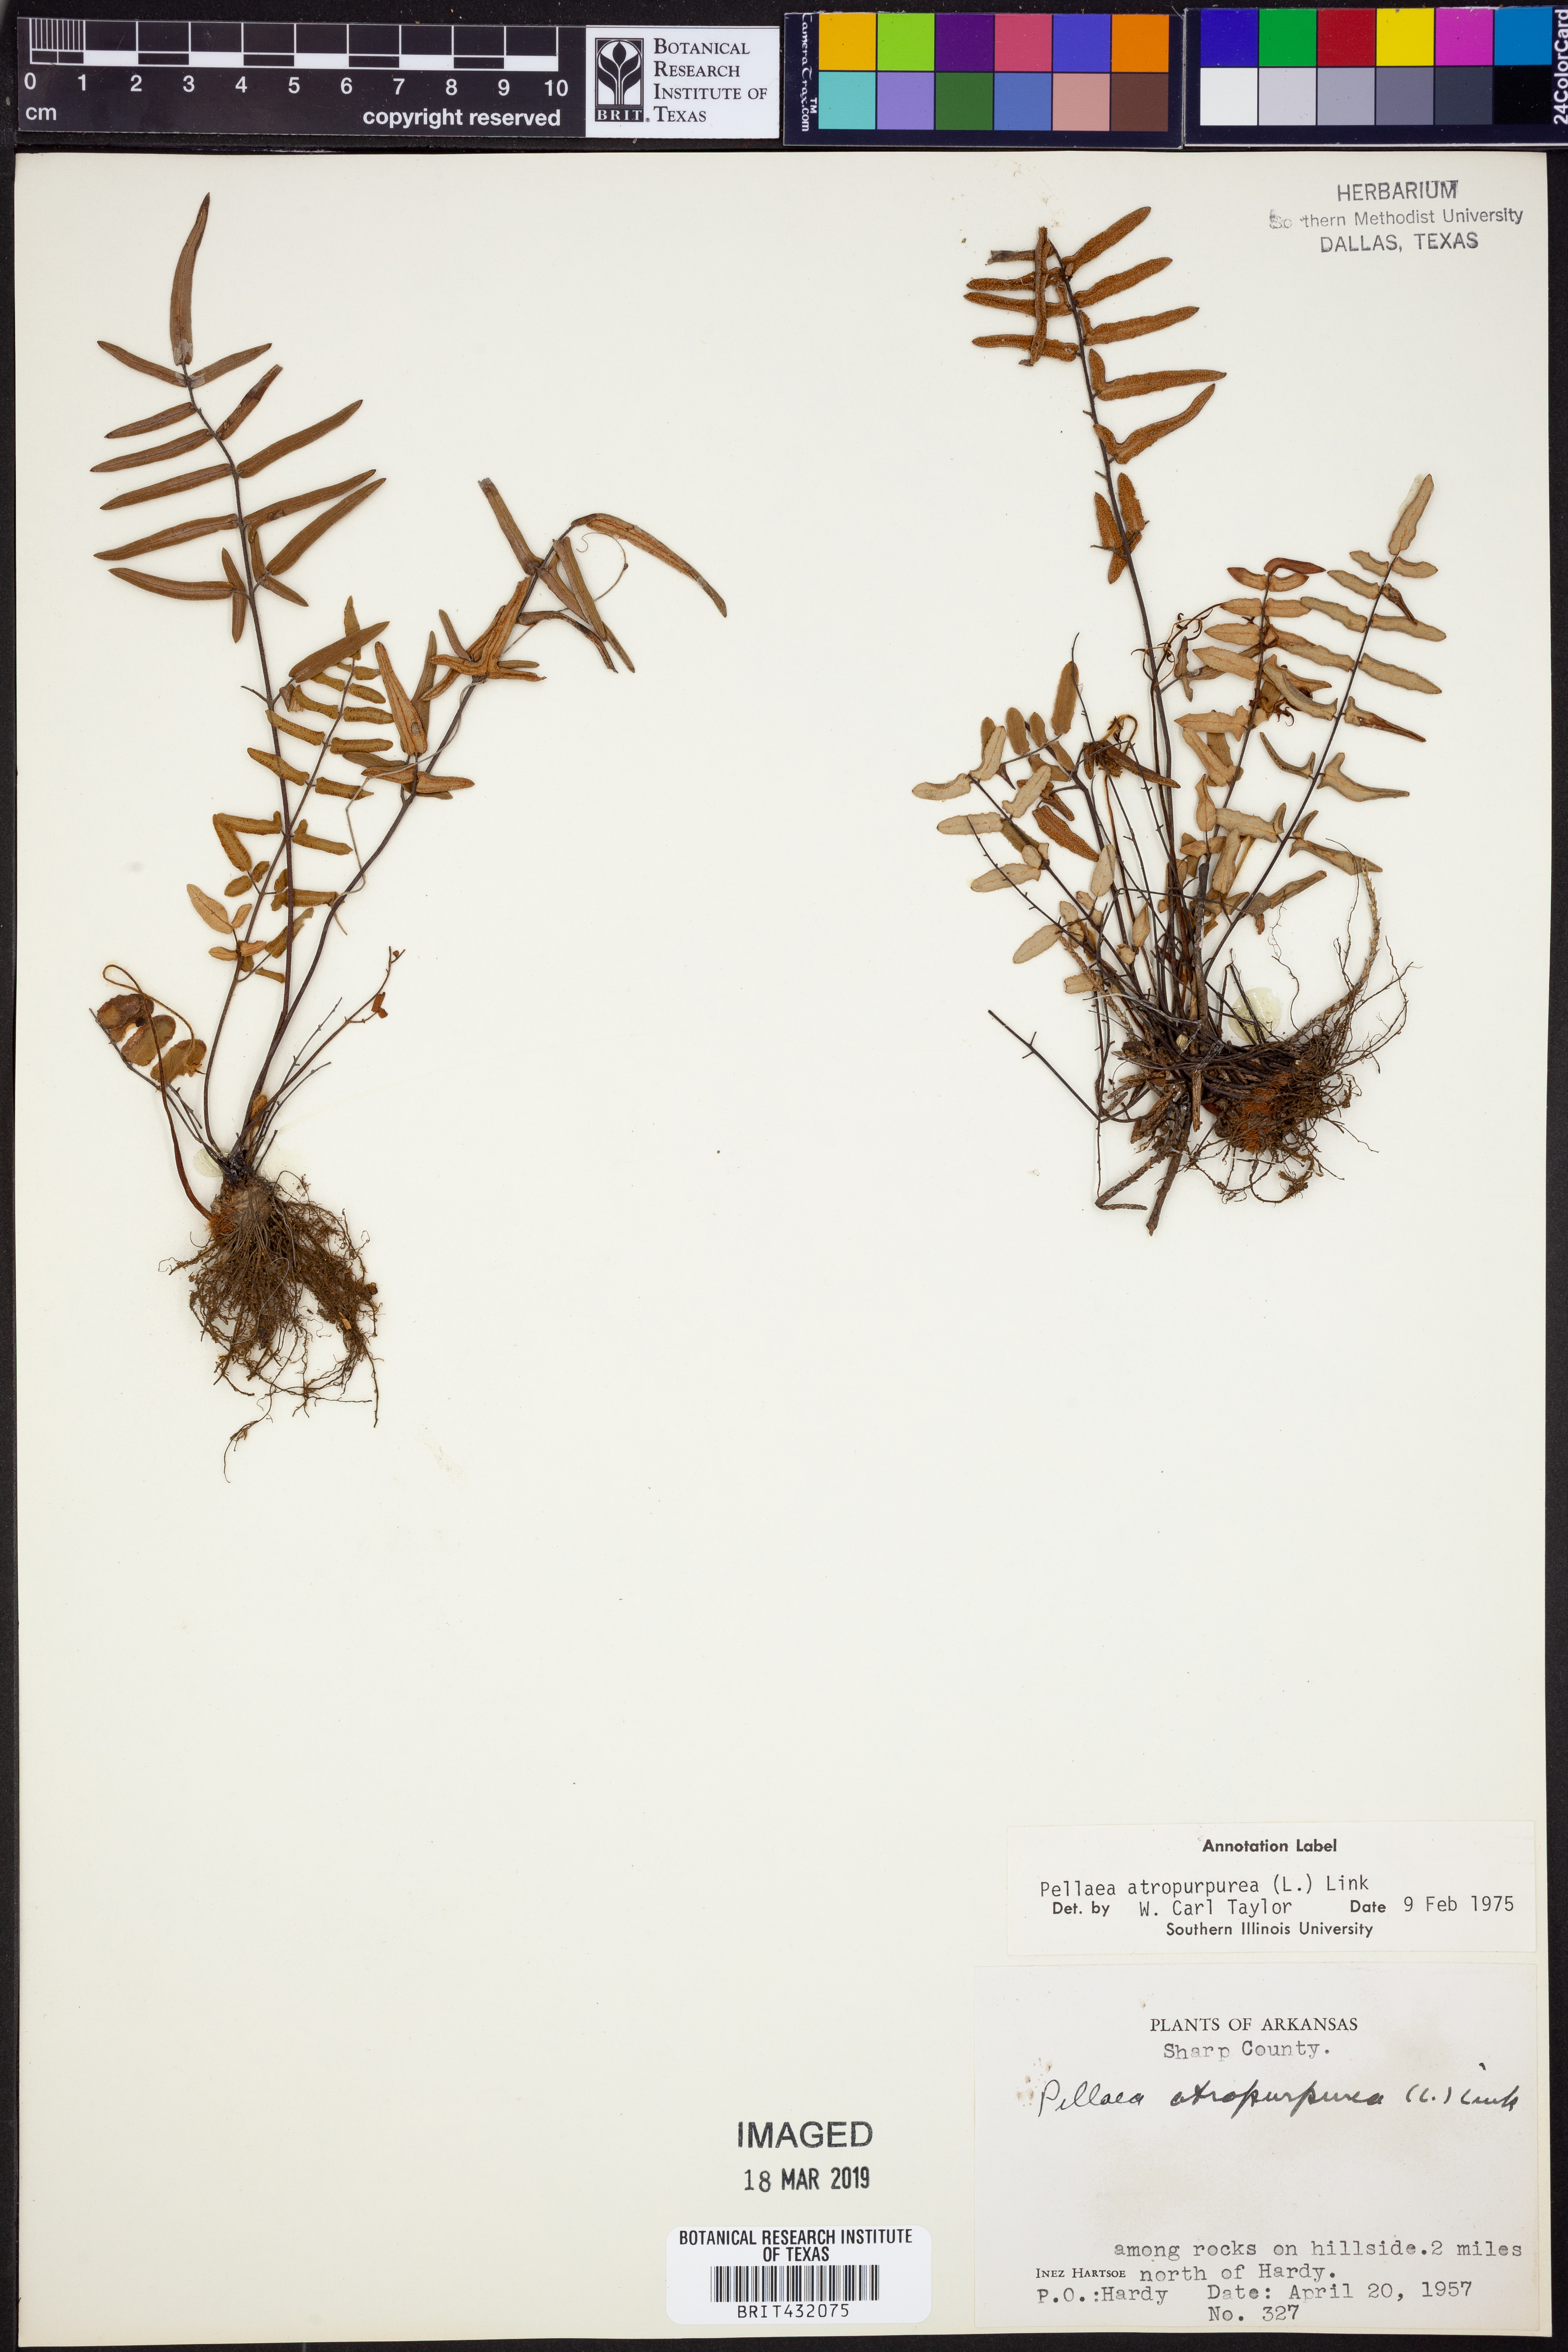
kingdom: Plantae
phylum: Tracheophyta
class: Polypodiopsida
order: Polypodiales
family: Pteridaceae
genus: Pellaea
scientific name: Pellaea atropurpurea
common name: Hairy cliffbrake
